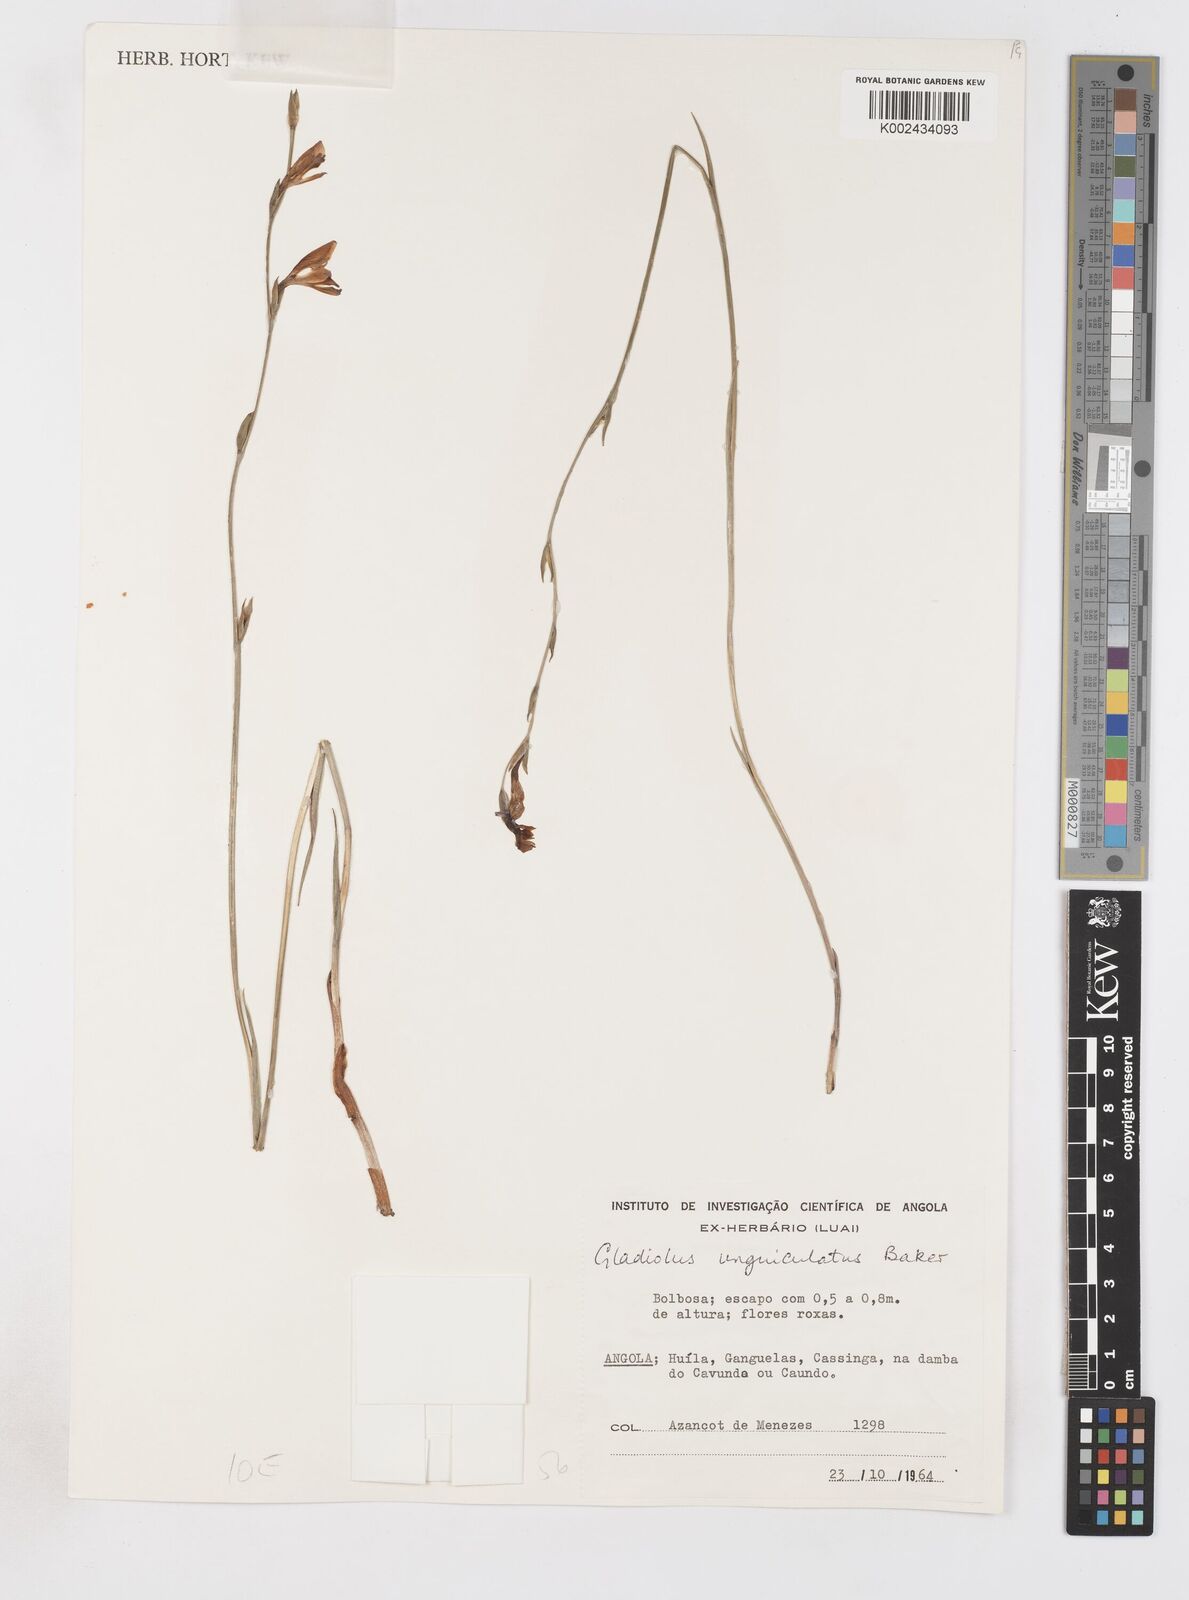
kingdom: Plantae
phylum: Tracheophyta
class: Liliopsida
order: Asparagales
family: Iridaceae
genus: Gladiolus
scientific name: Gladiolus atropurpureus
